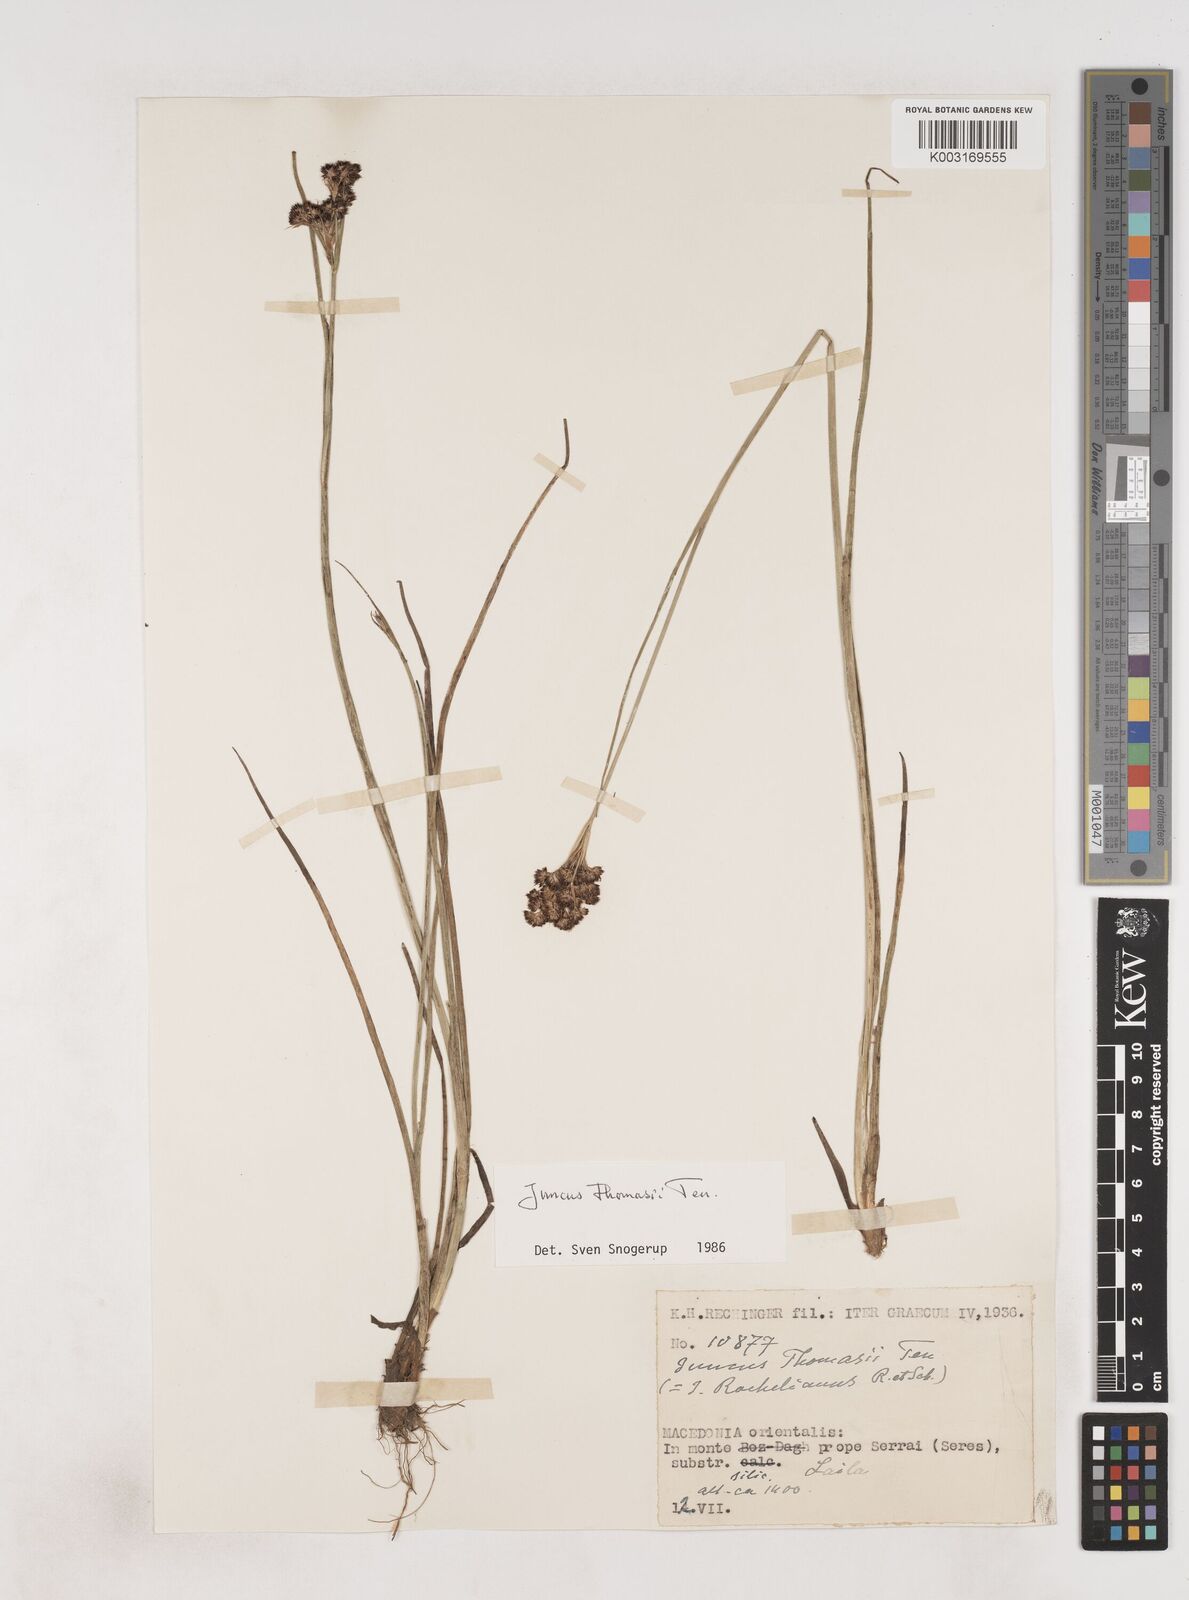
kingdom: Plantae
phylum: Tracheophyta
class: Liliopsida
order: Poales
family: Juncaceae
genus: Juncus
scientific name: Juncus thomasii
